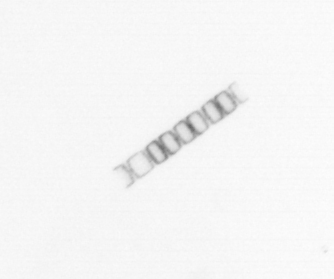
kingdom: Chromista
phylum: Ochrophyta
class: Bacillariophyceae
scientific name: Bacillariophyceae
